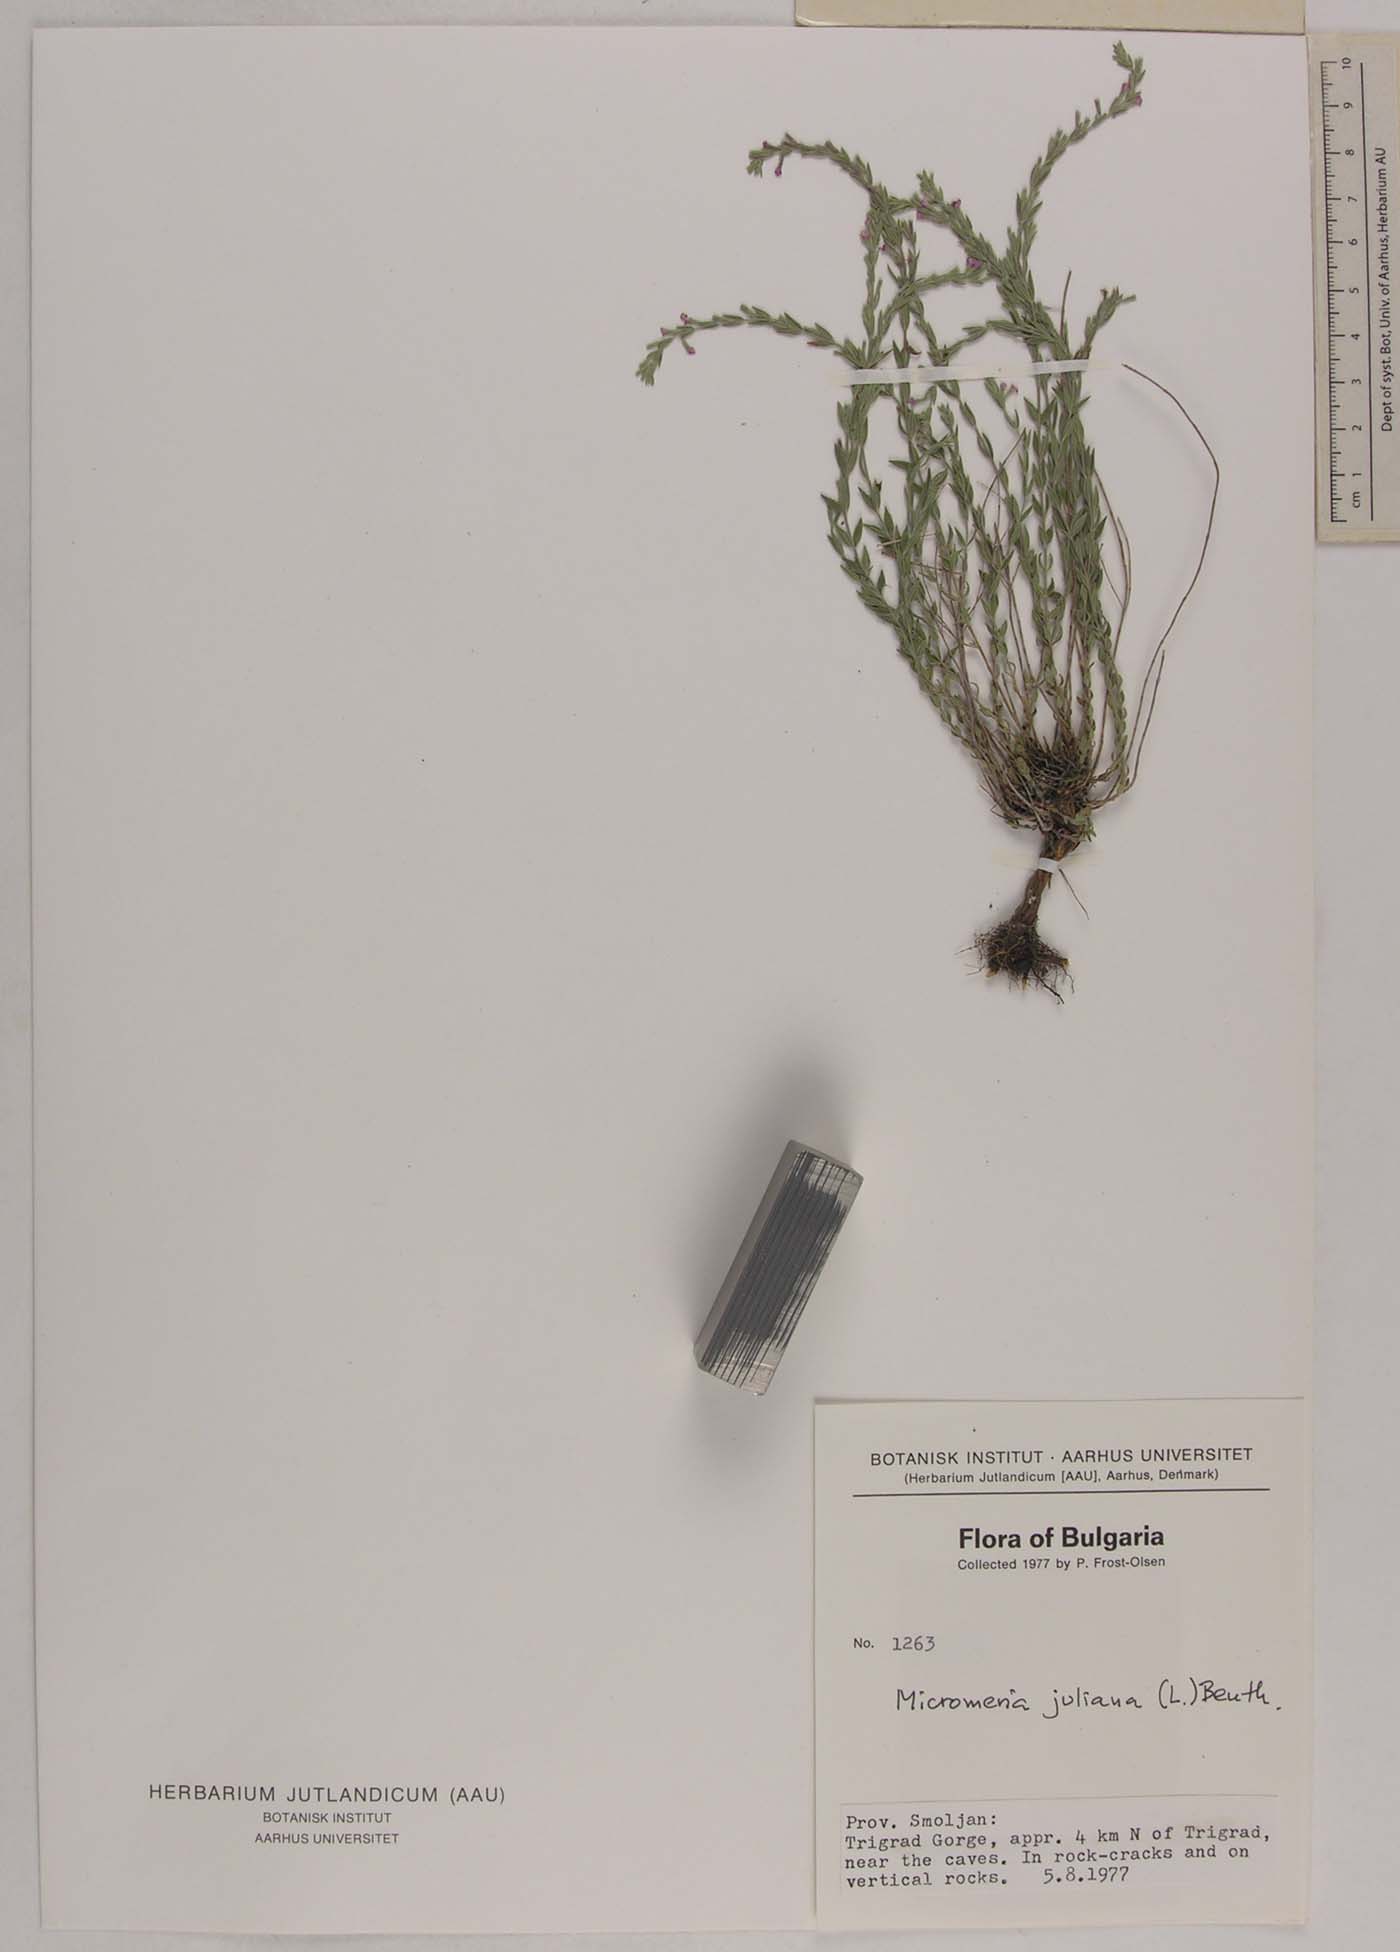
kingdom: Plantae
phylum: Tracheophyta
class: Magnoliopsida
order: Lamiales
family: Lamiaceae
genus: Micromeria
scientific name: Micromeria cristata
